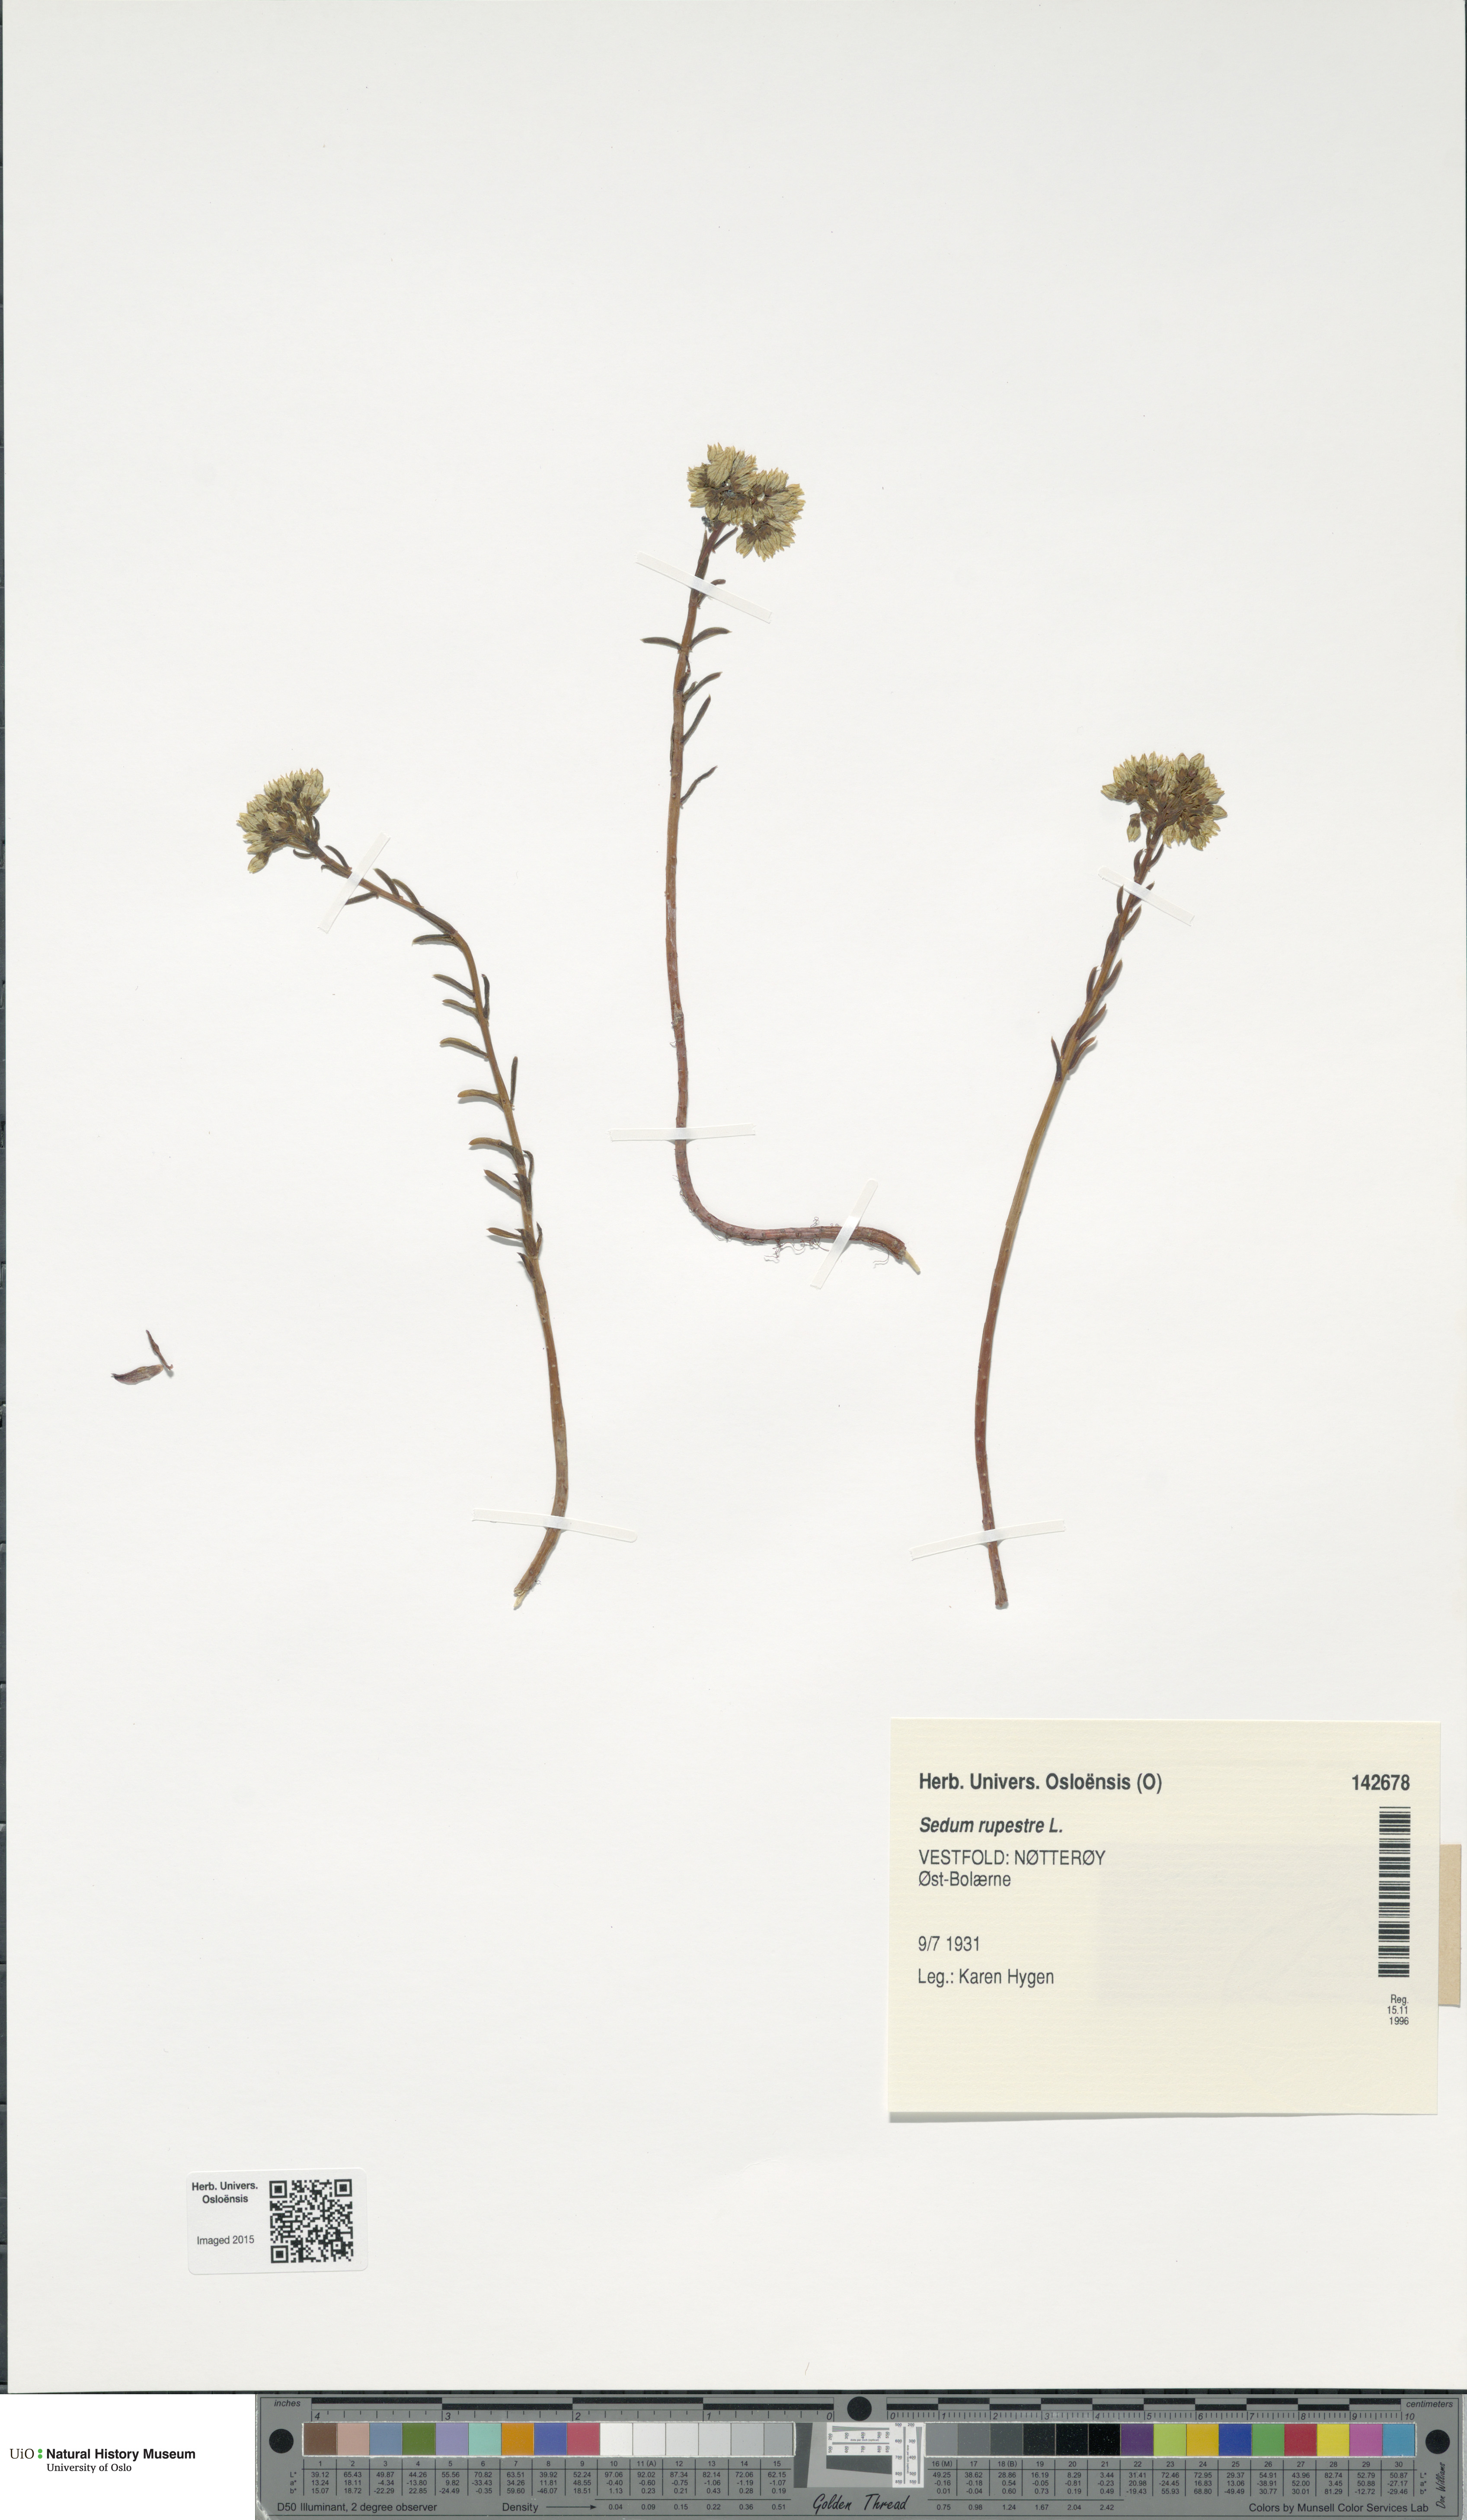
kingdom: Plantae
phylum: Tracheophyta
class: Magnoliopsida
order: Saxifragales
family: Crassulaceae
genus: Petrosedum
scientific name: Petrosedum rupestre
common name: Jenny's stonecrop
